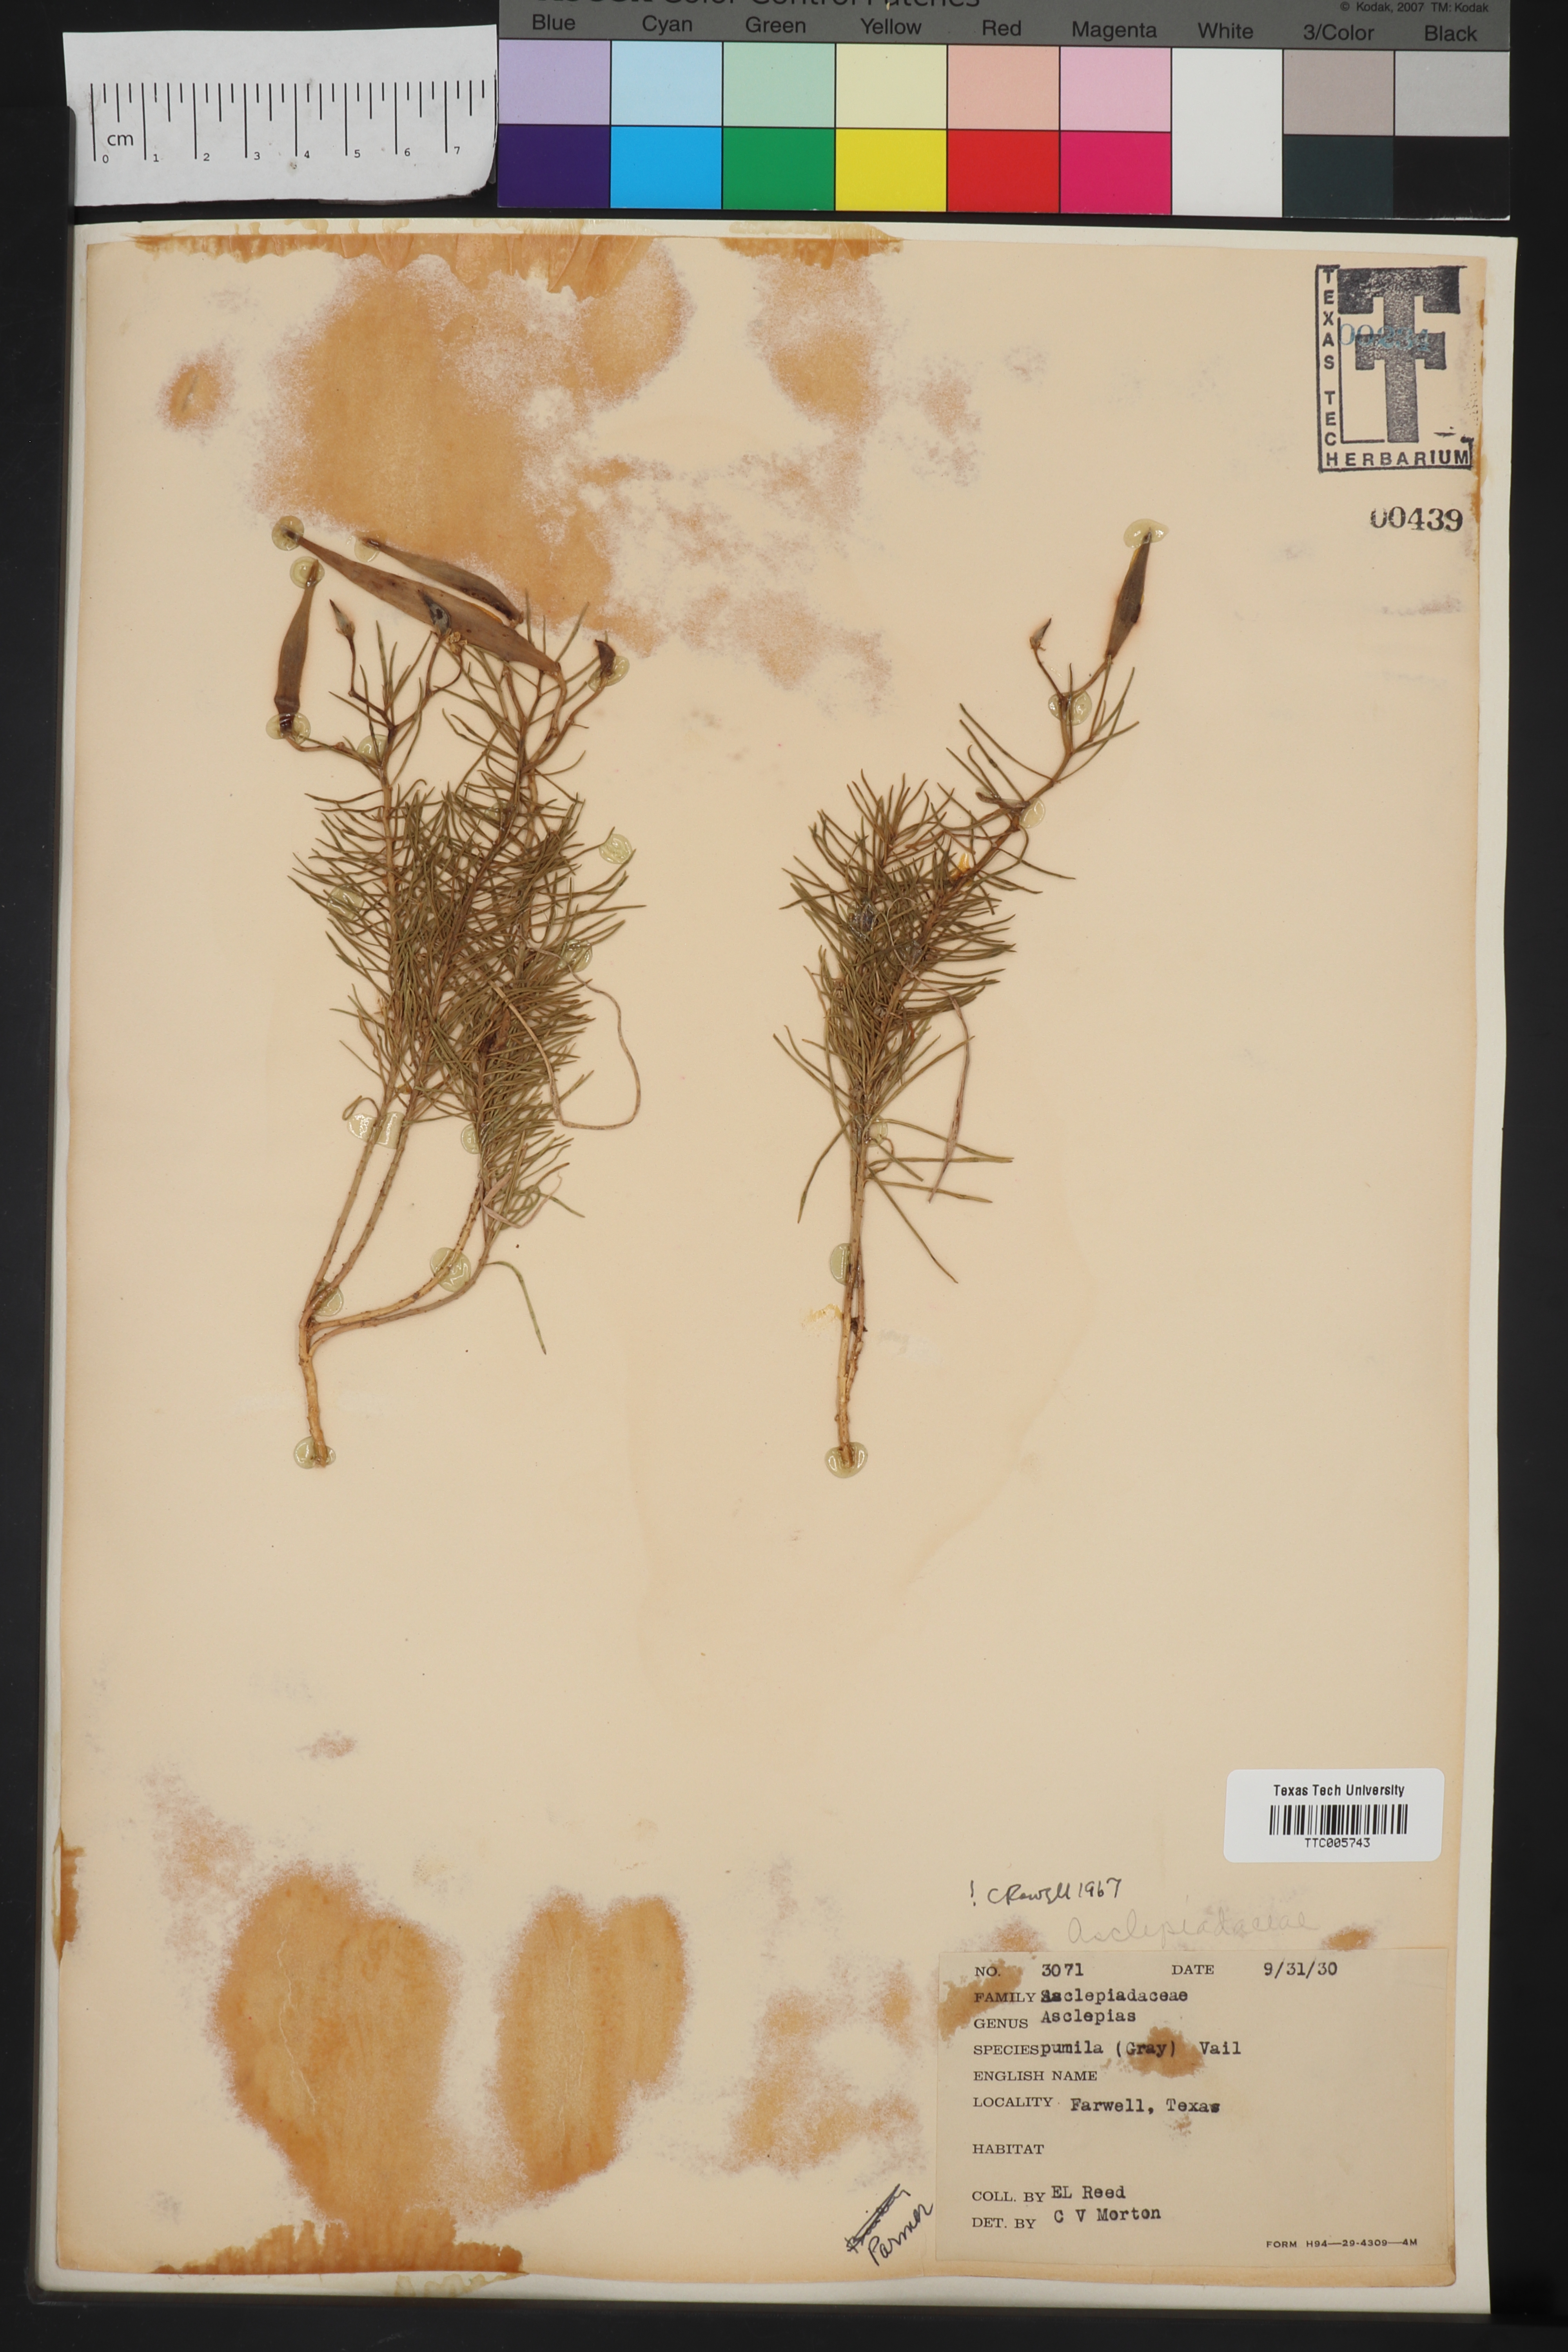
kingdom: Plantae
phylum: Tracheophyta
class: Magnoliopsida
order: Gentianales
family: Apocynaceae
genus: Asclepias
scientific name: Asclepias pumila
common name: Dwarf milkweed
